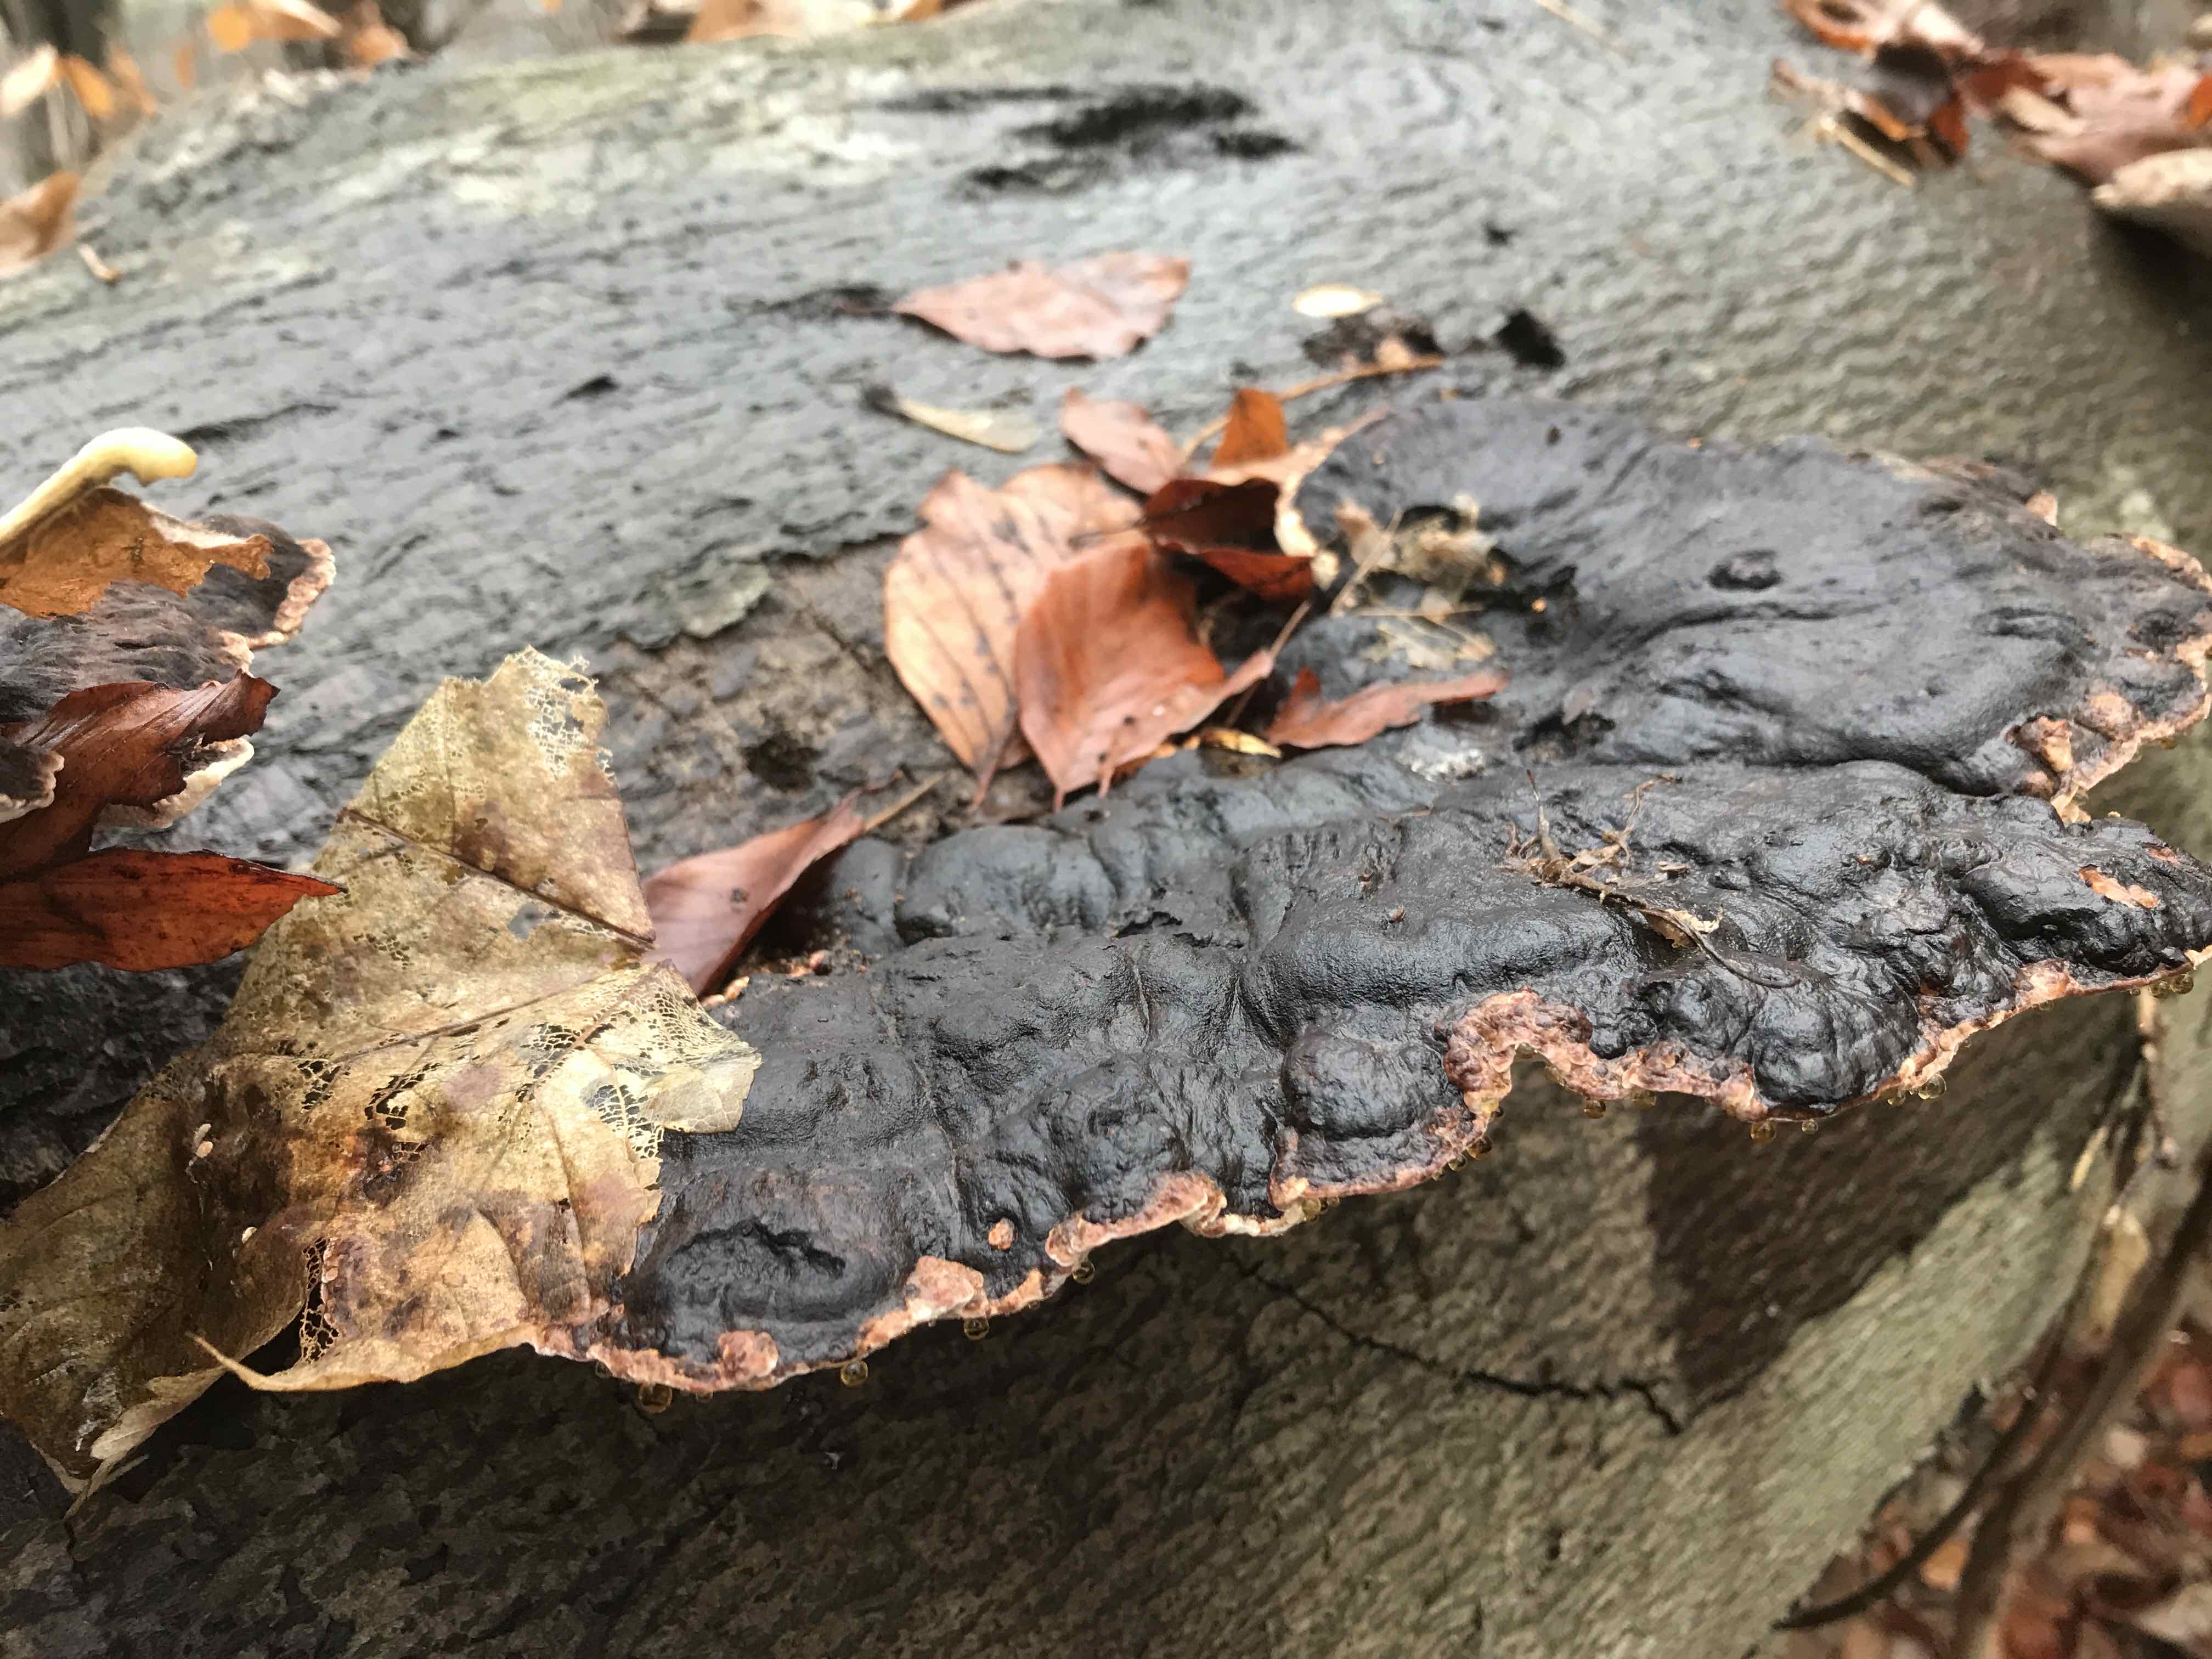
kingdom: Fungi
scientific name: Fungi
